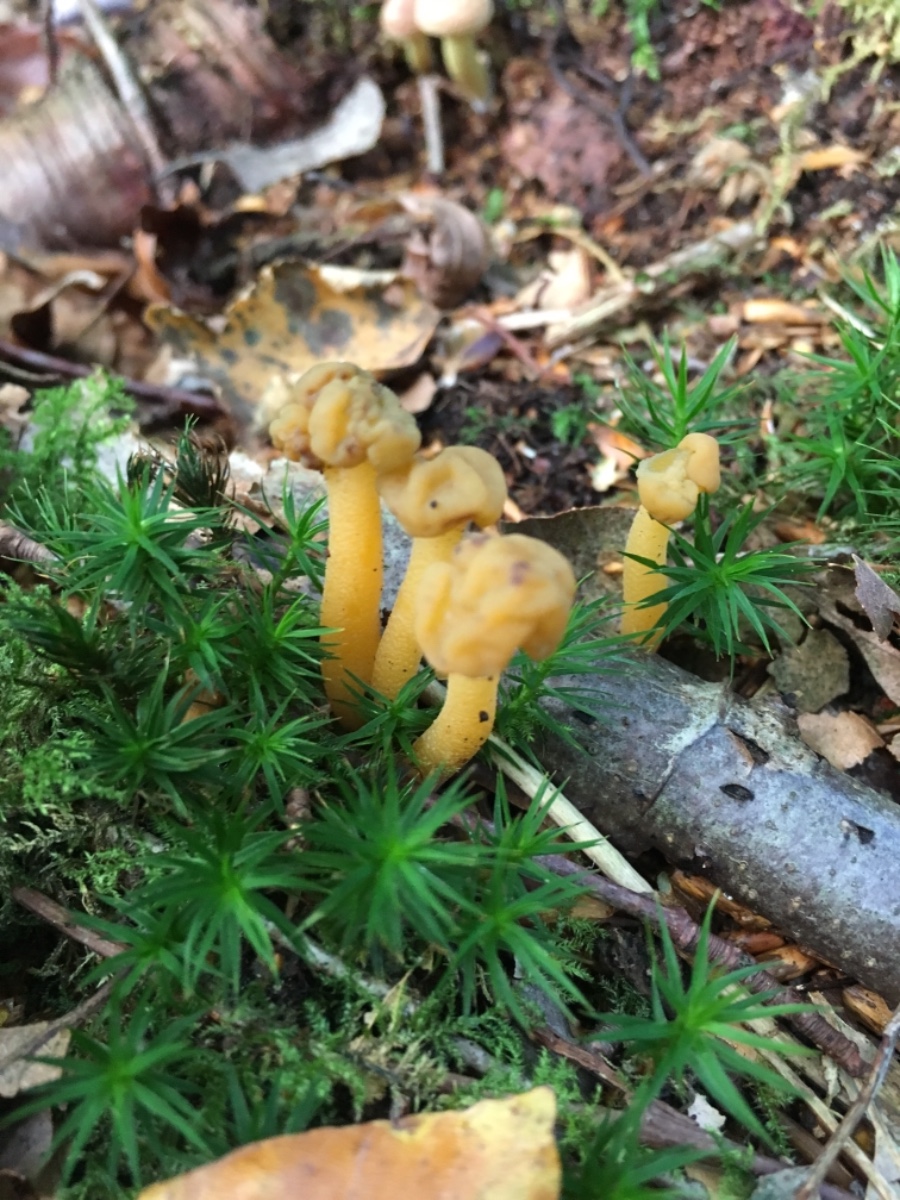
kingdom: Fungi
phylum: Ascomycota
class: Leotiomycetes
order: Leotiales
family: Leotiaceae
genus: Leotia
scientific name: Leotia lubrica
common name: ravsvamp
